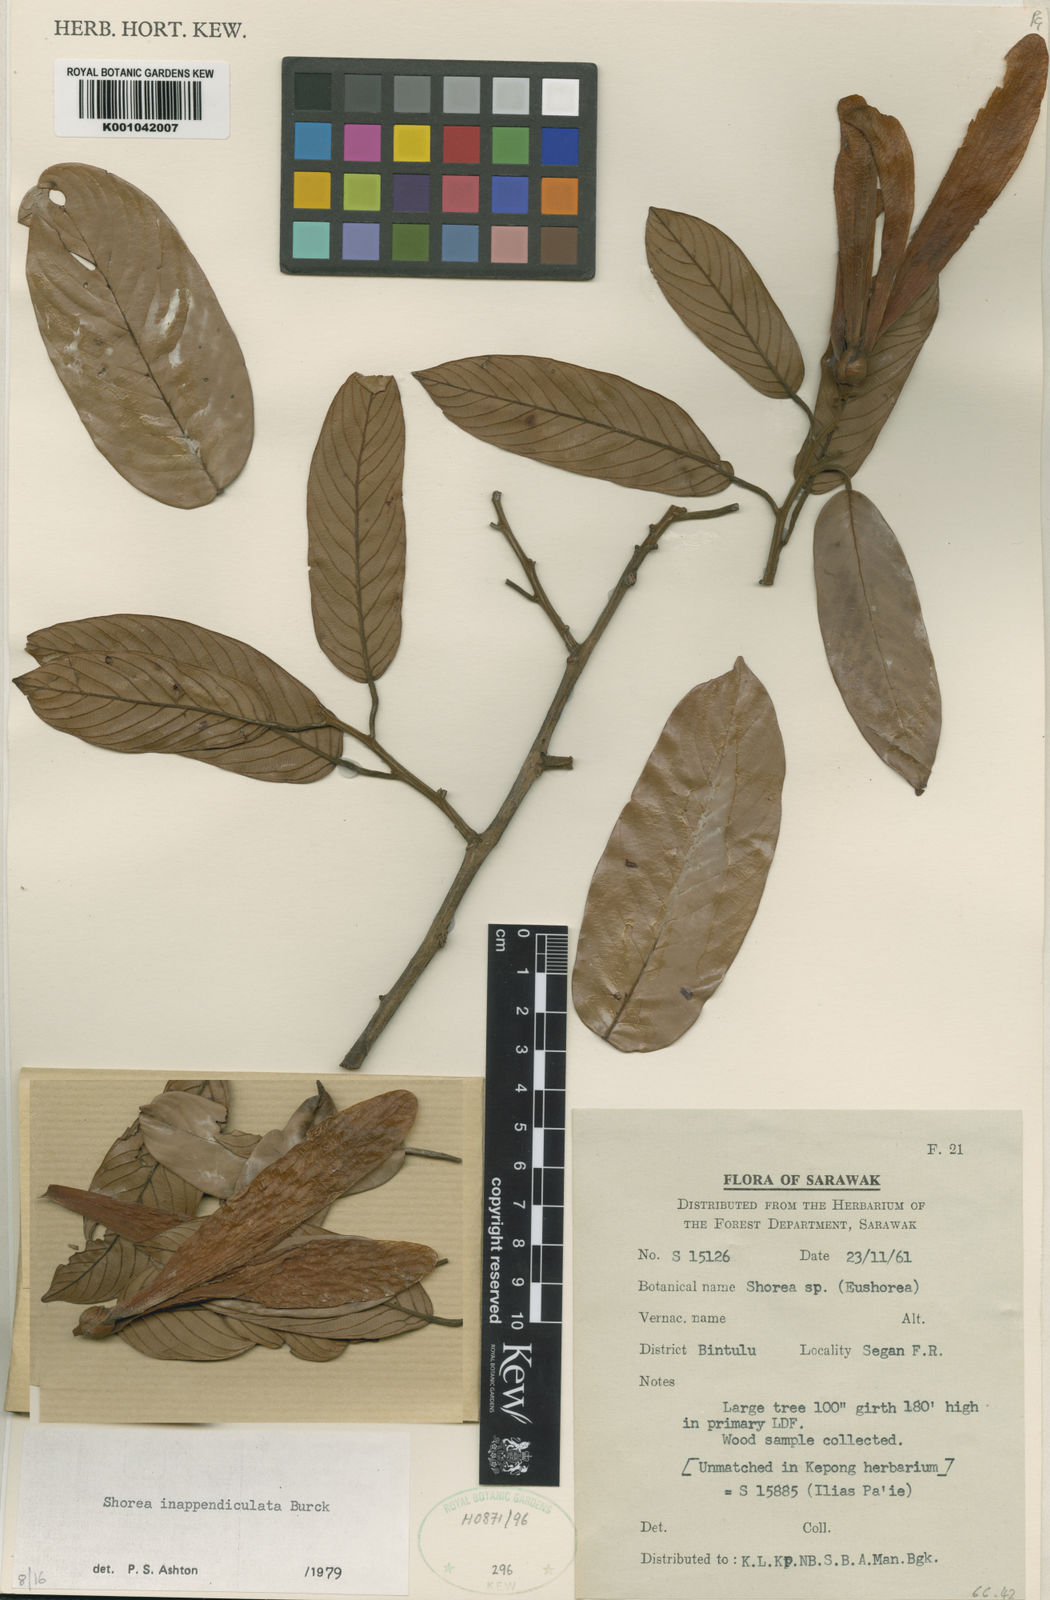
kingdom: Plantae
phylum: Tracheophyta
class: Magnoliopsida
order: Malvales
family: Dipterocarpaceae
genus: Shorea
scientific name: Shorea inappendiculata
